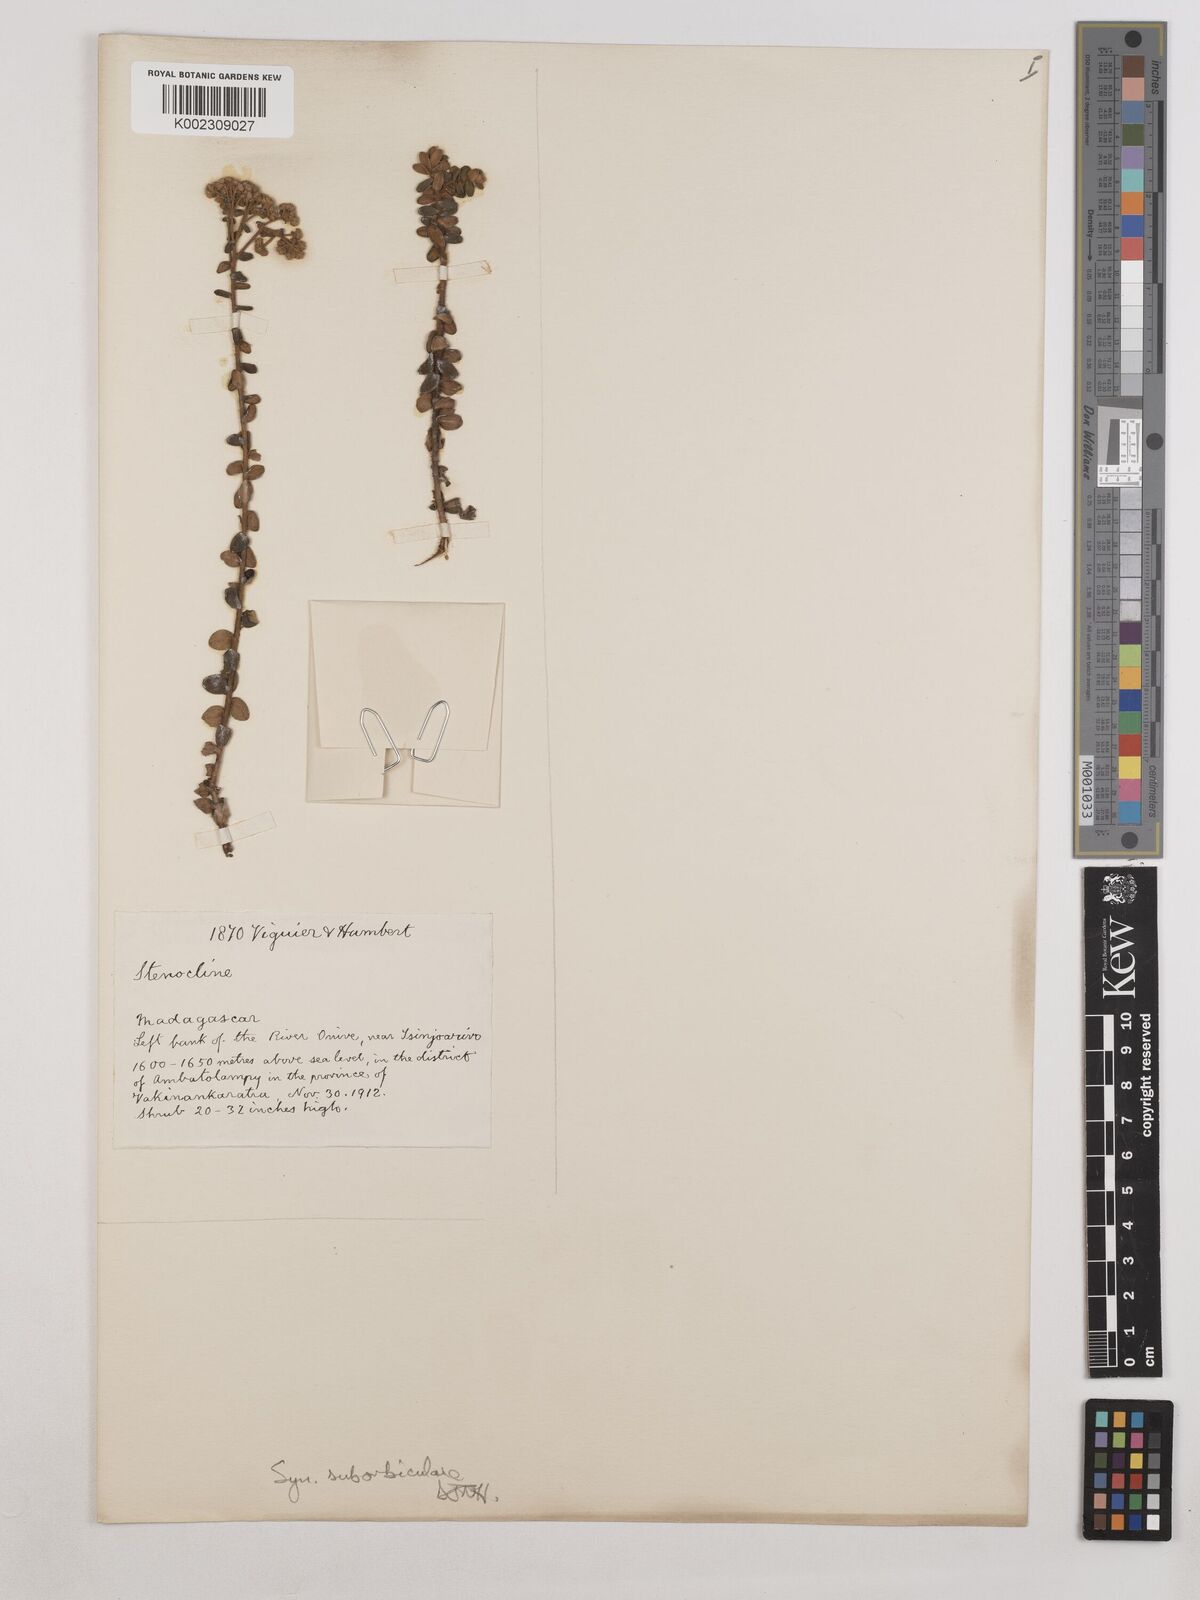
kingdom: Plantae
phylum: Tracheophyta
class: Magnoliopsida
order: Asterales
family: Asteraceae
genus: Syncephalum
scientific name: Syncephalum suborbiculare
